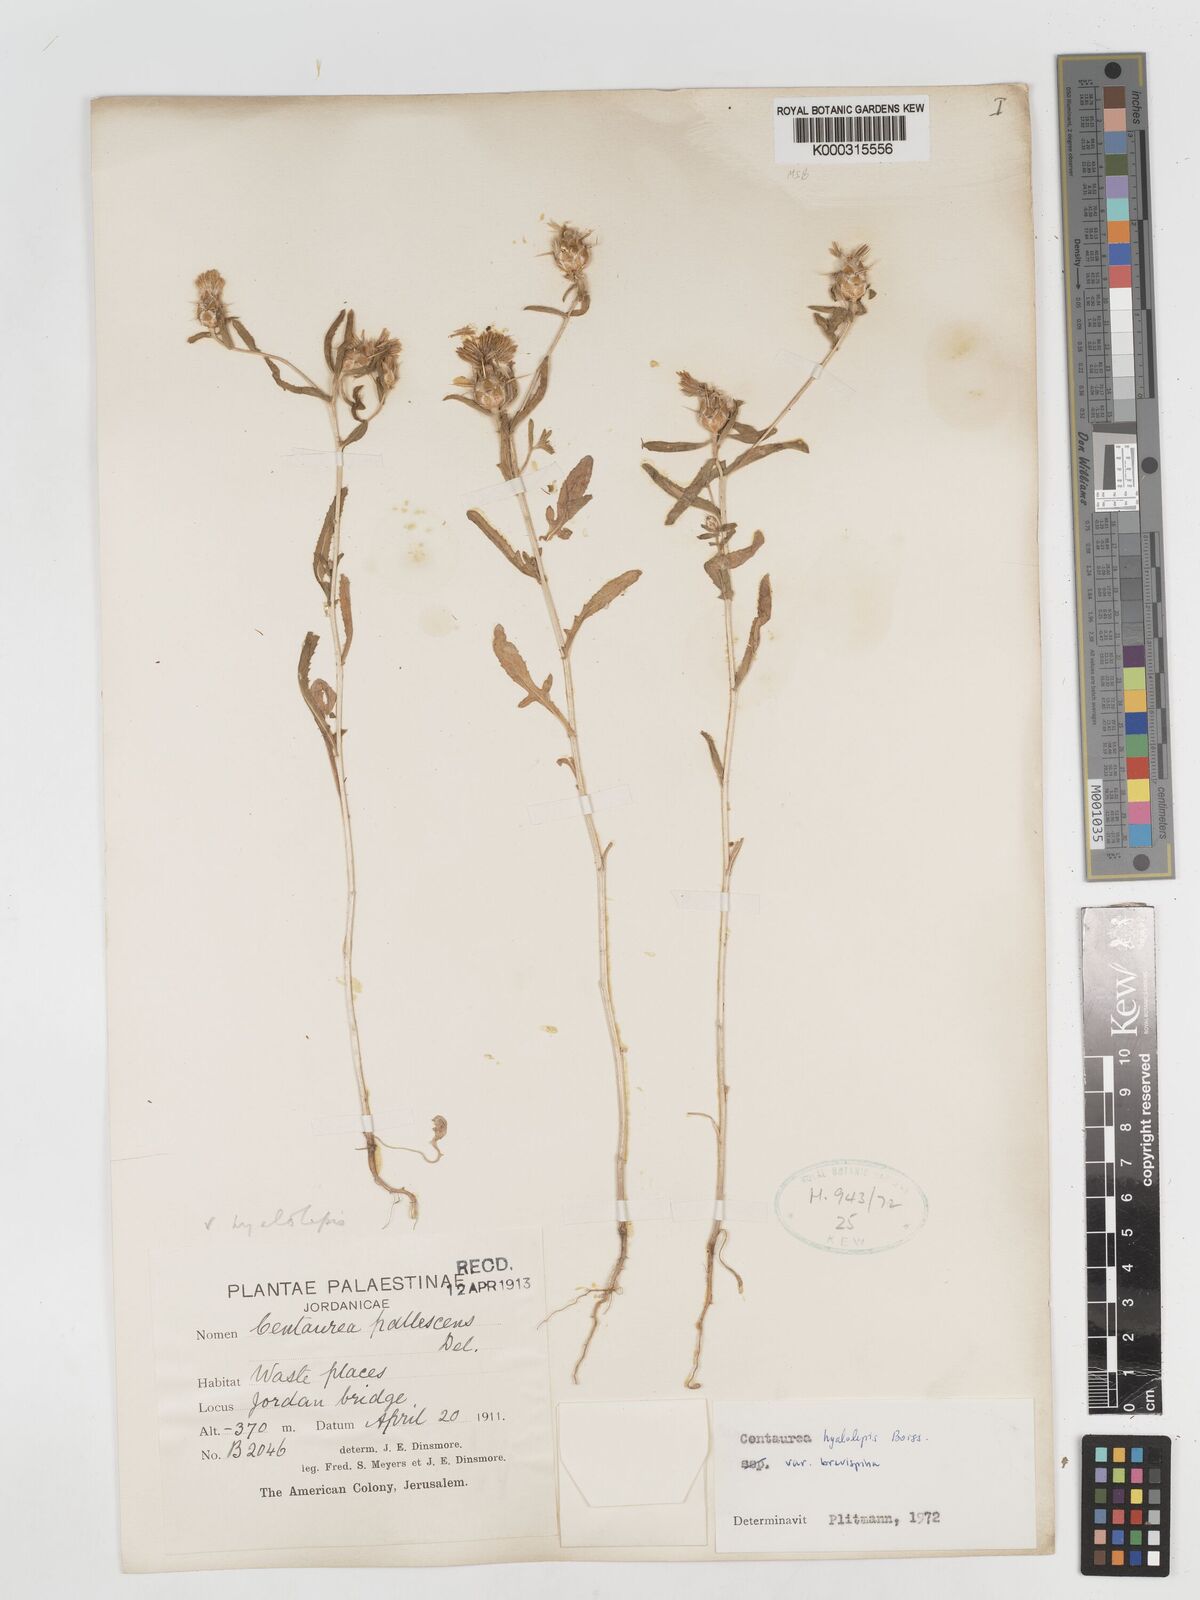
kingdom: Plantae
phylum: Tracheophyta
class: Magnoliopsida
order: Asterales
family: Asteraceae
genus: Centaurea
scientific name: Centaurea hyalolepis
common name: Eastern star-thistle
